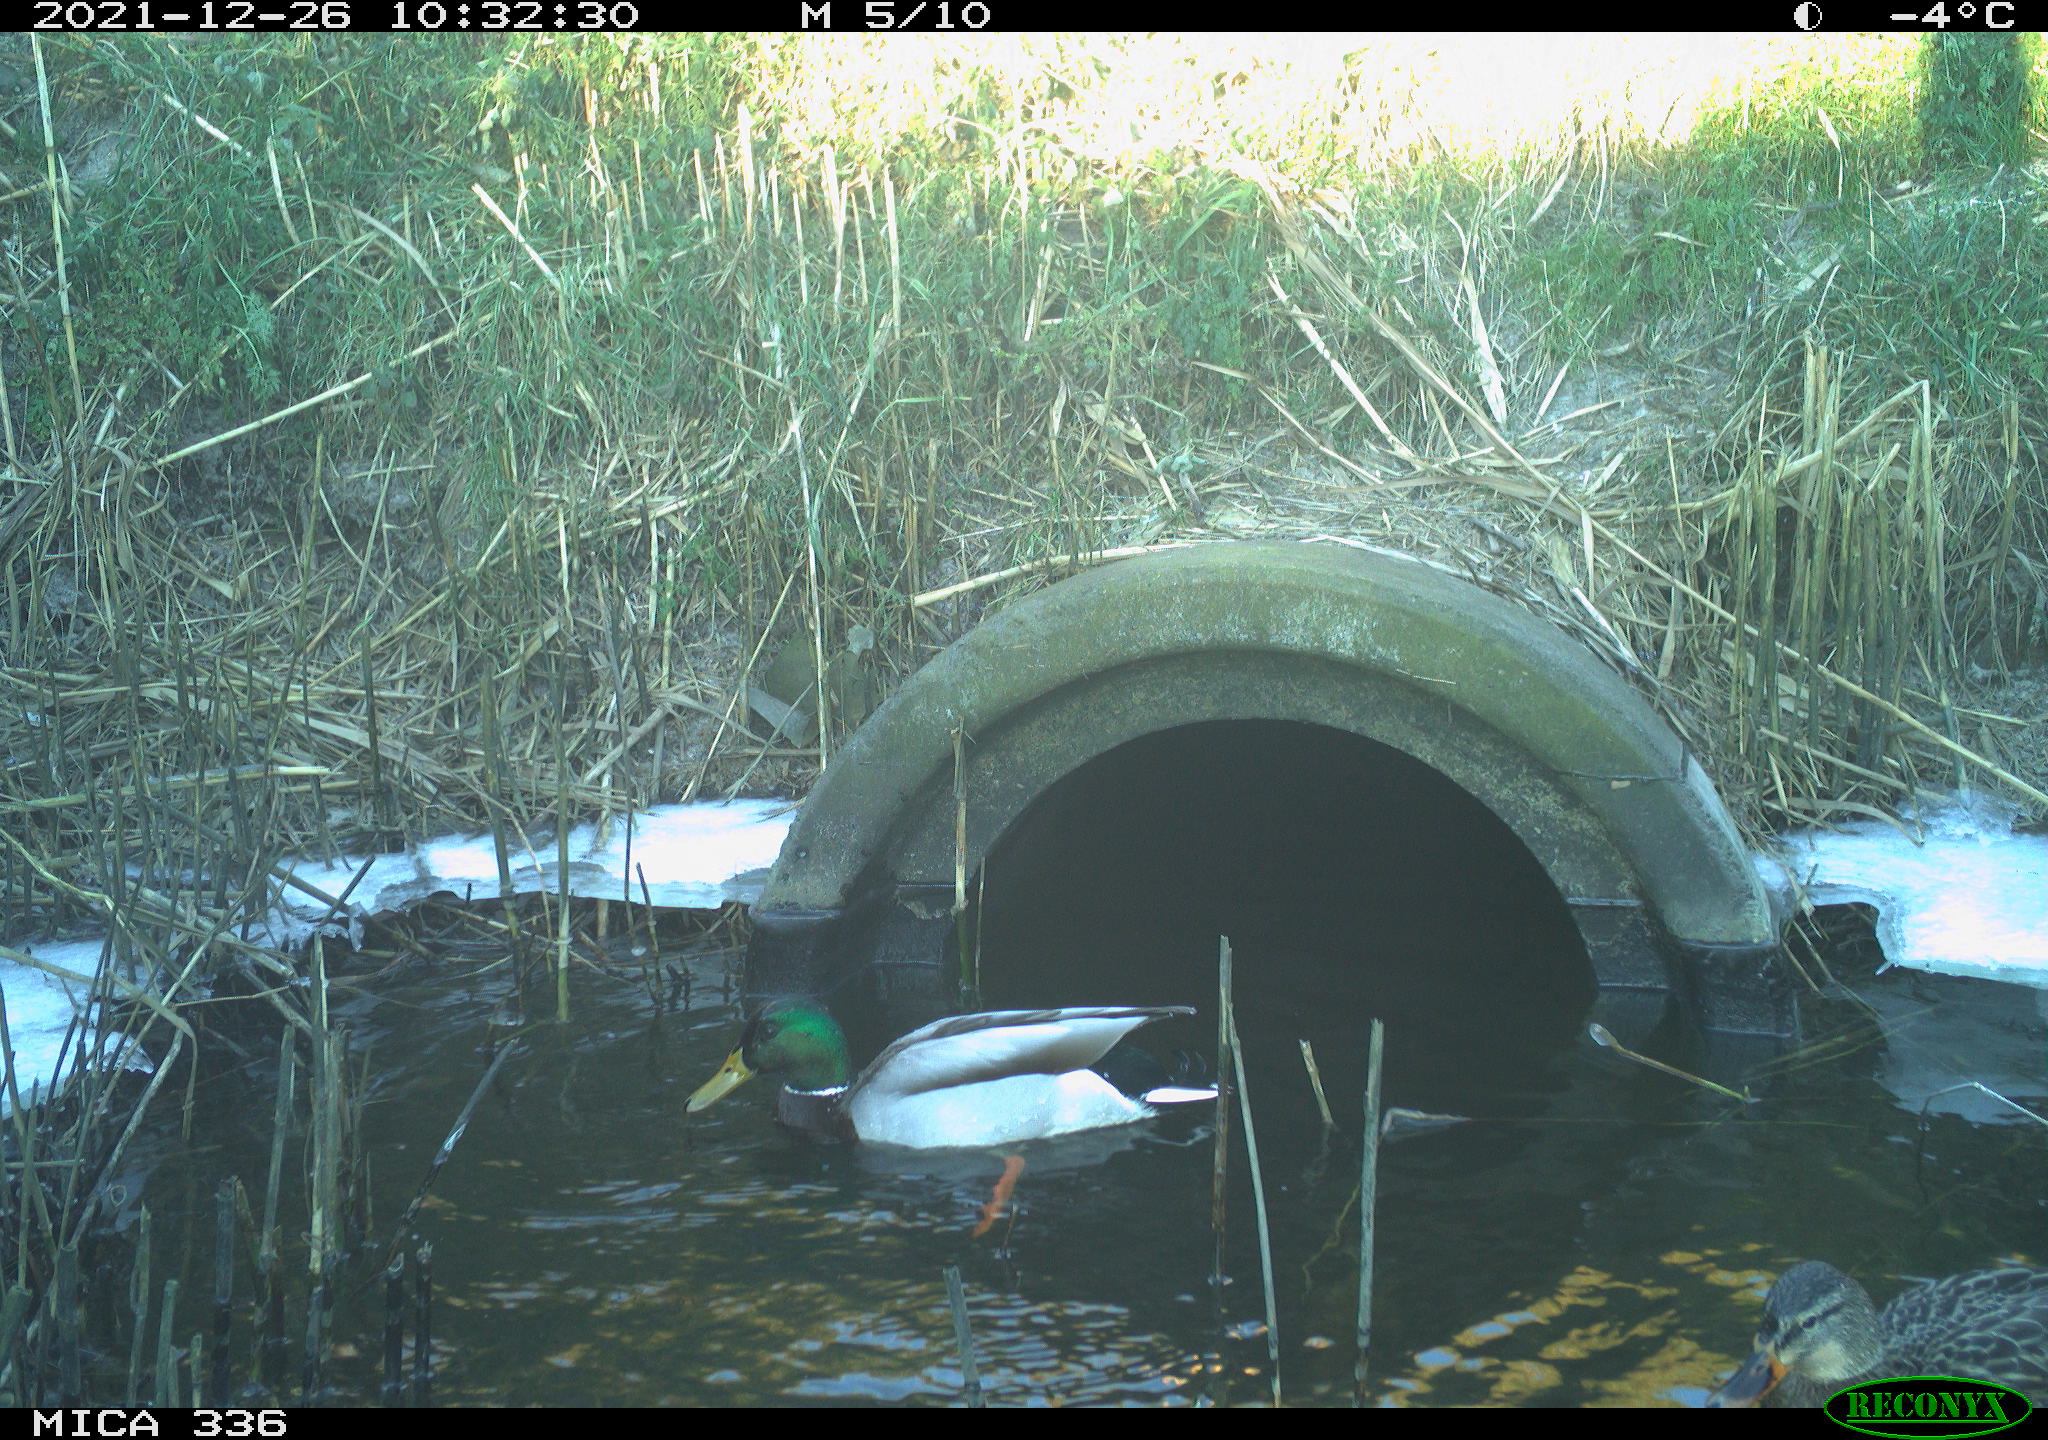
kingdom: Animalia
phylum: Chordata
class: Aves
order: Anseriformes
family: Anatidae
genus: Anas
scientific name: Anas platyrhynchos
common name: Mallard
